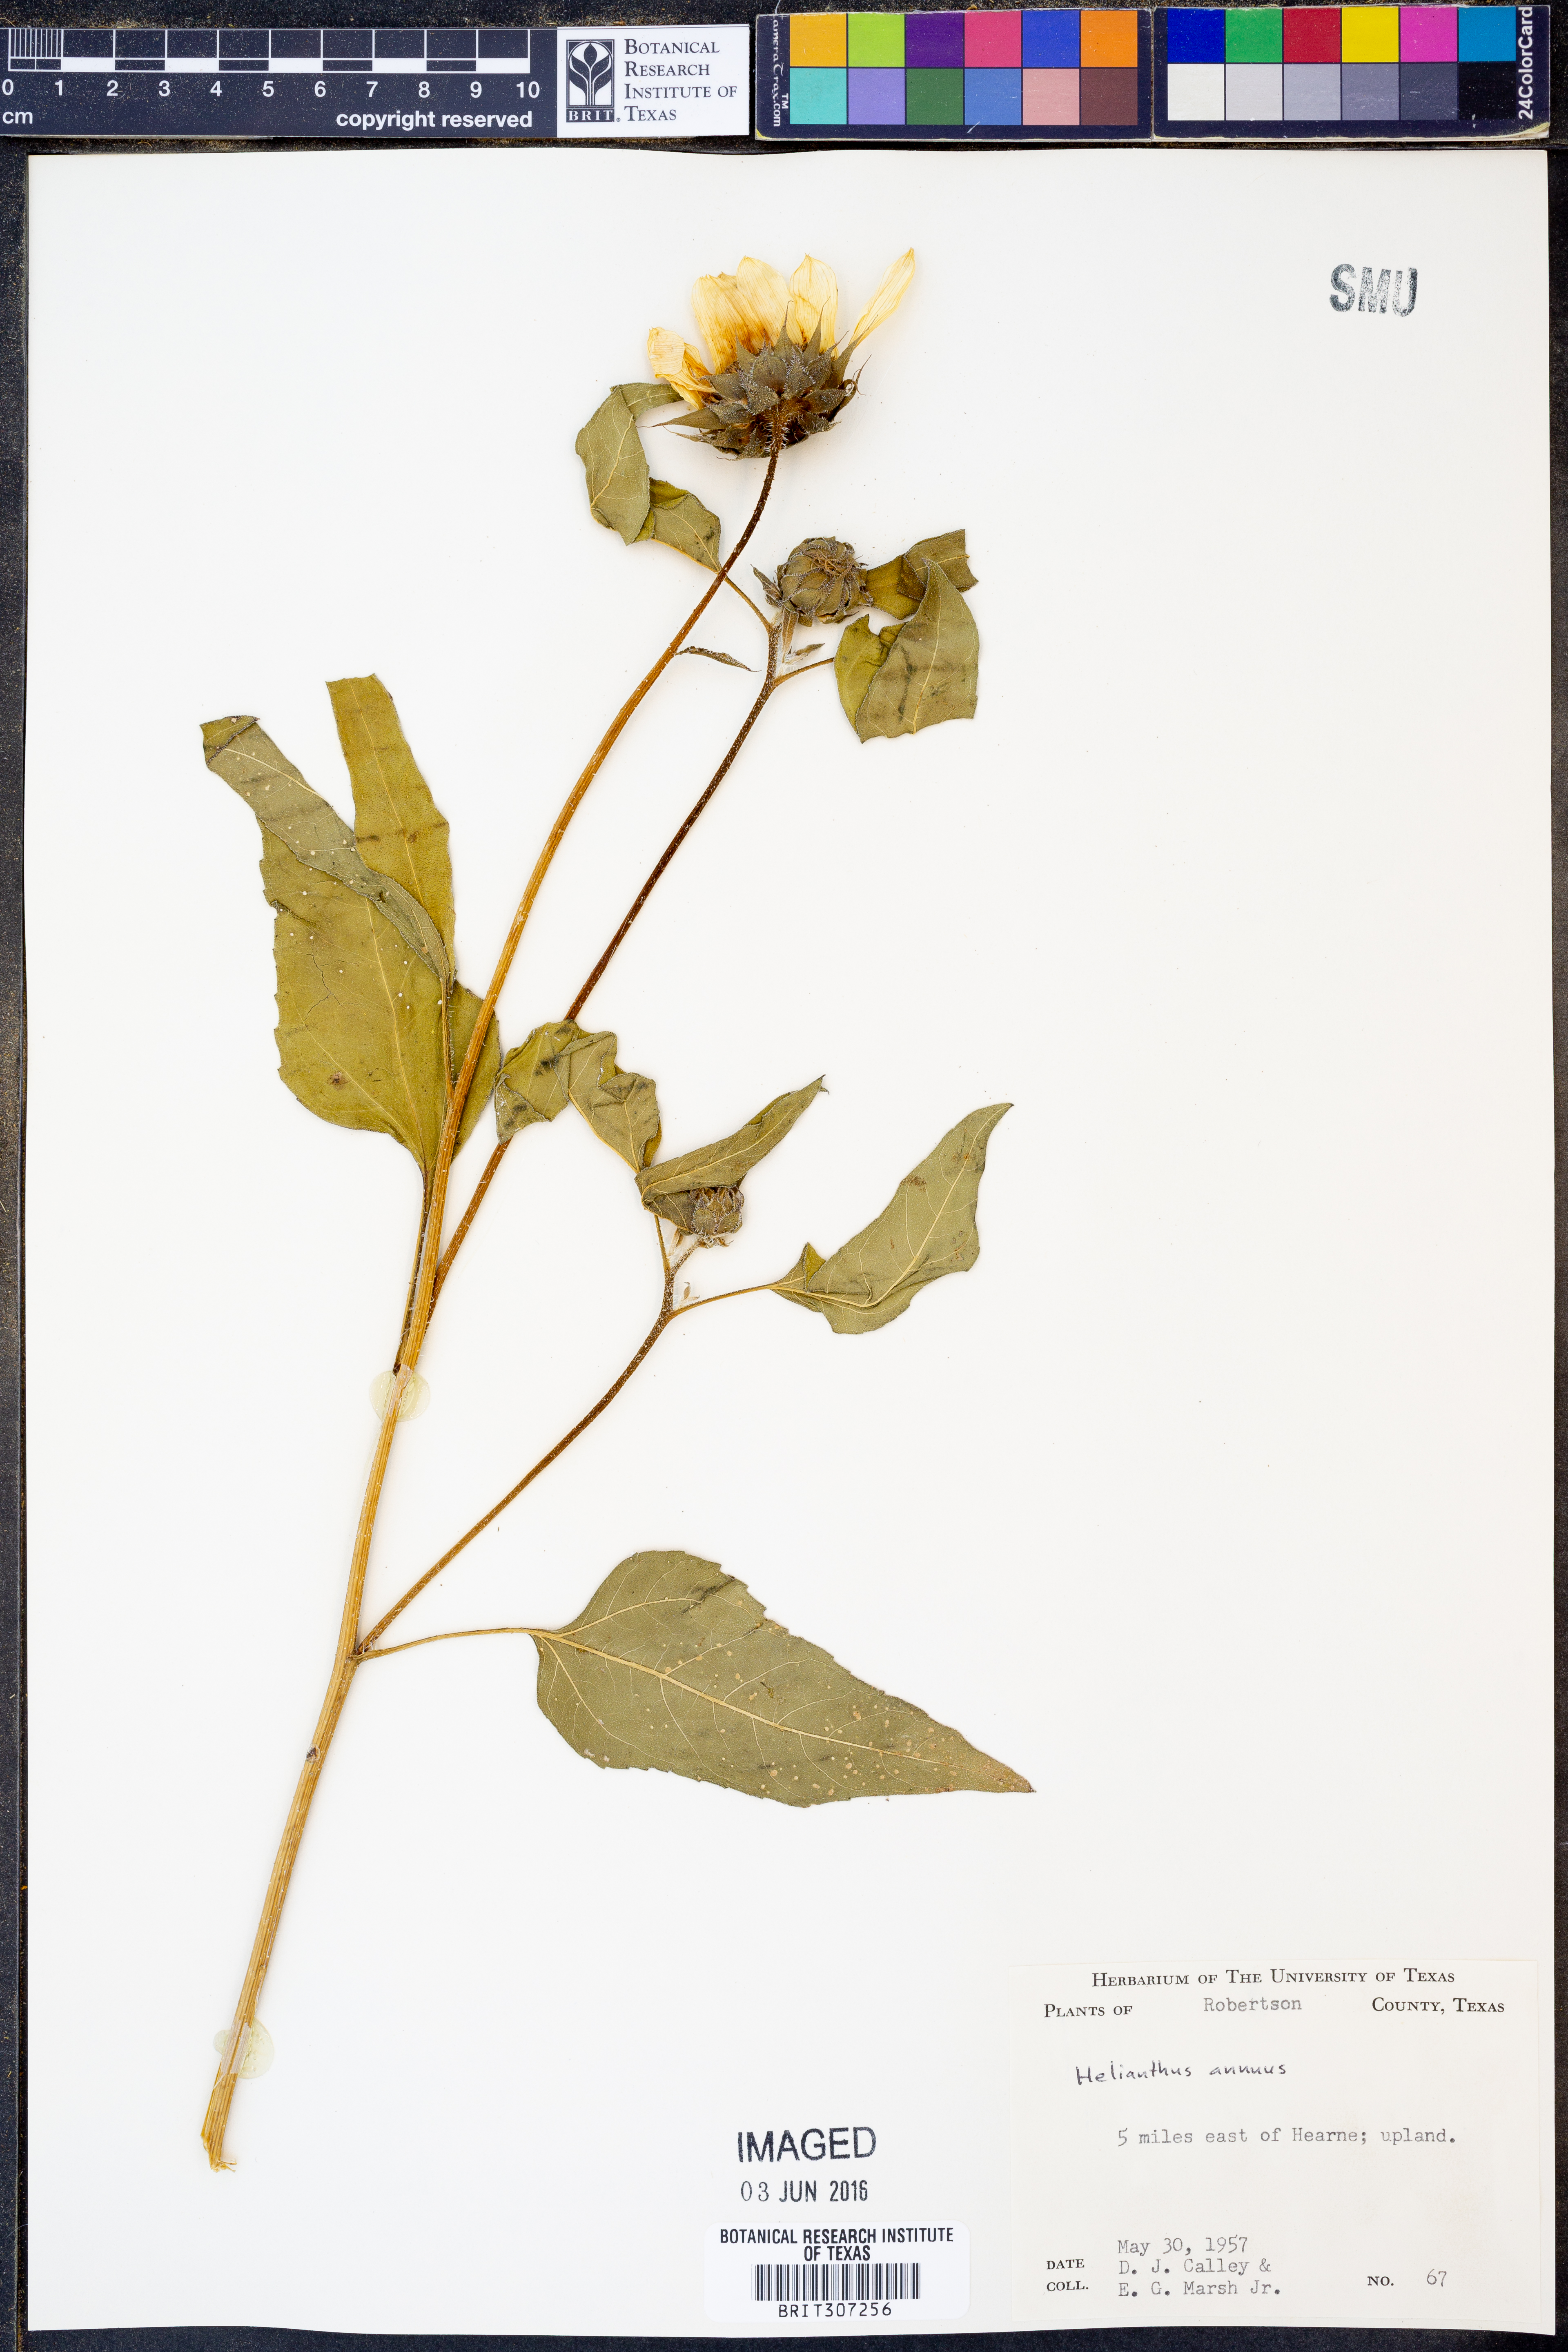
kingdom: Plantae
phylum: Tracheophyta
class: Magnoliopsida
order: Asterales
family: Asteraceae
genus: Helianthus
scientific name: Helianthus annuus
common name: Sunflower
